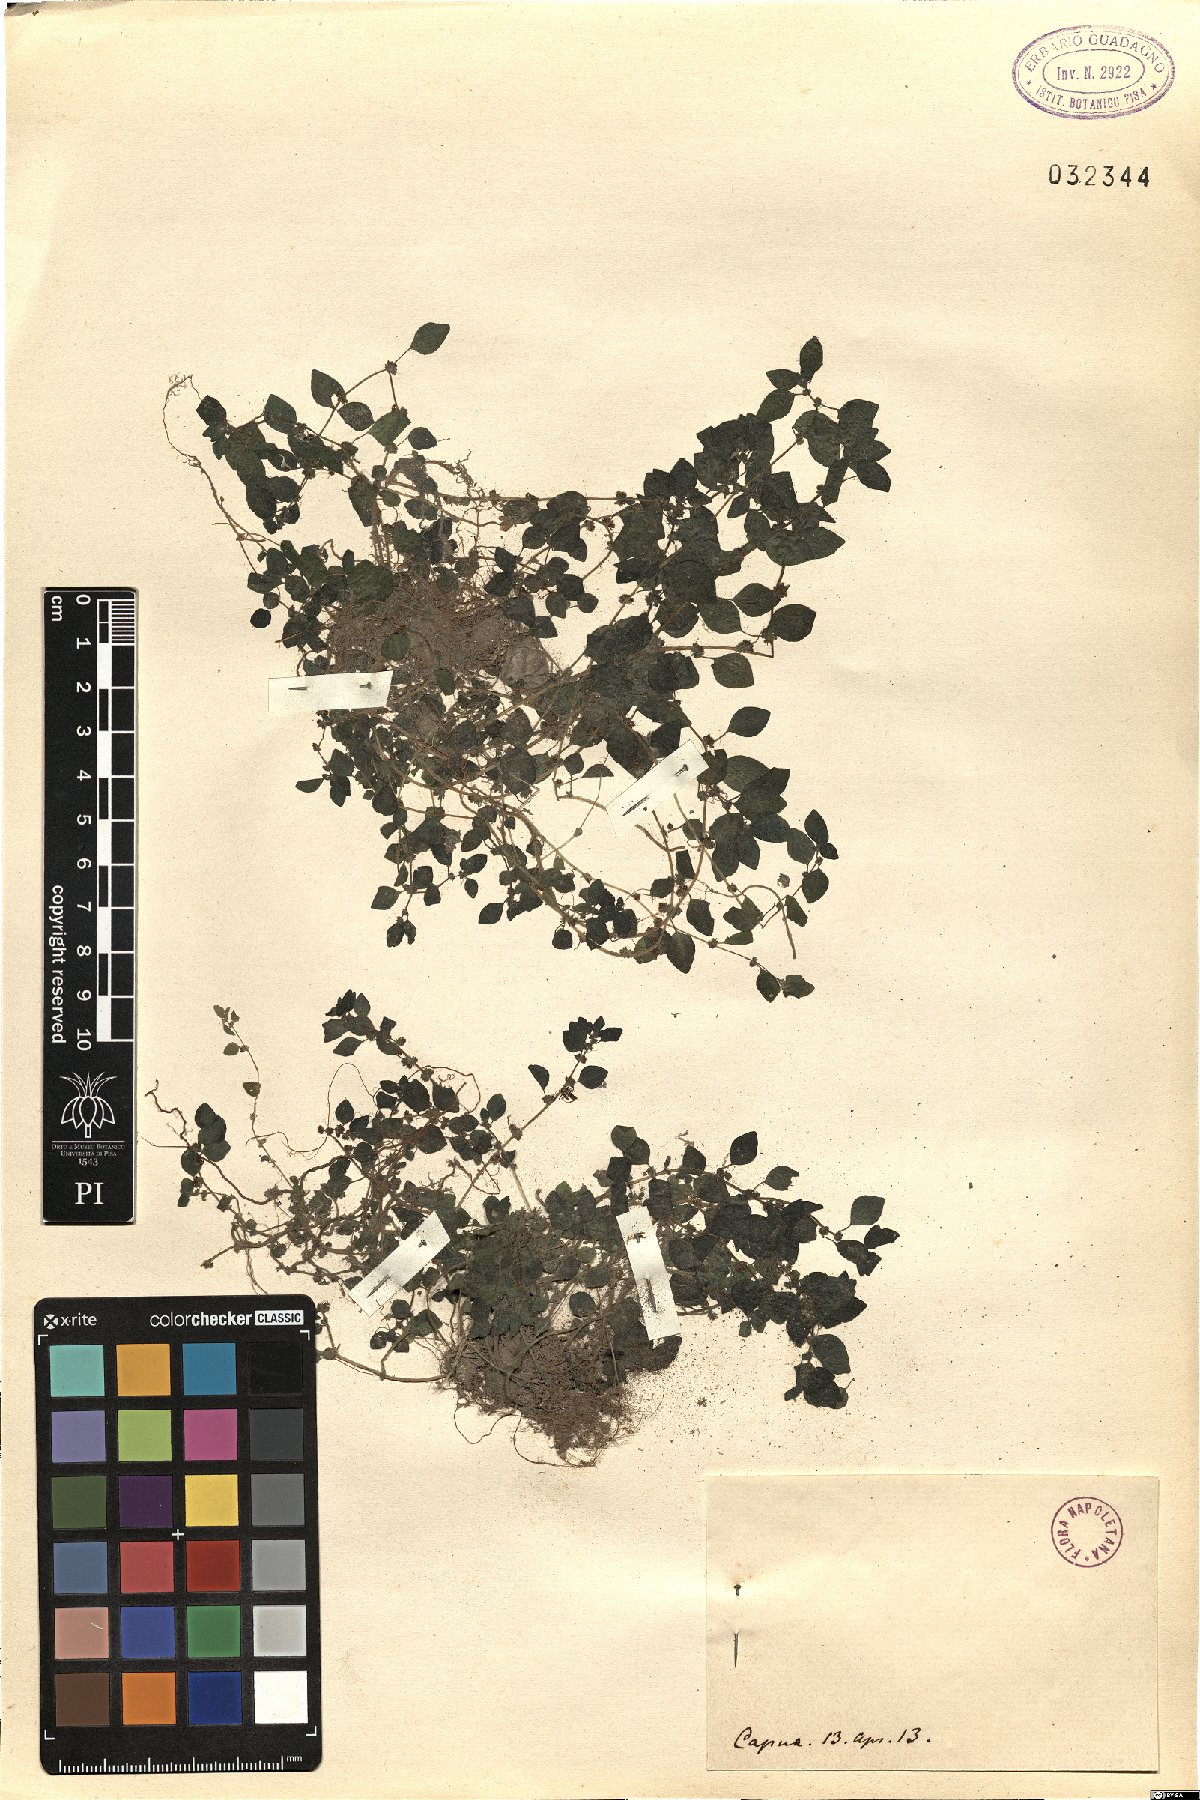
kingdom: Plantae
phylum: Tracheophyta
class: Magnoliopsida
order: Rosales
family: Urticaceae
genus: Parietaria
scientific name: Parietaria
